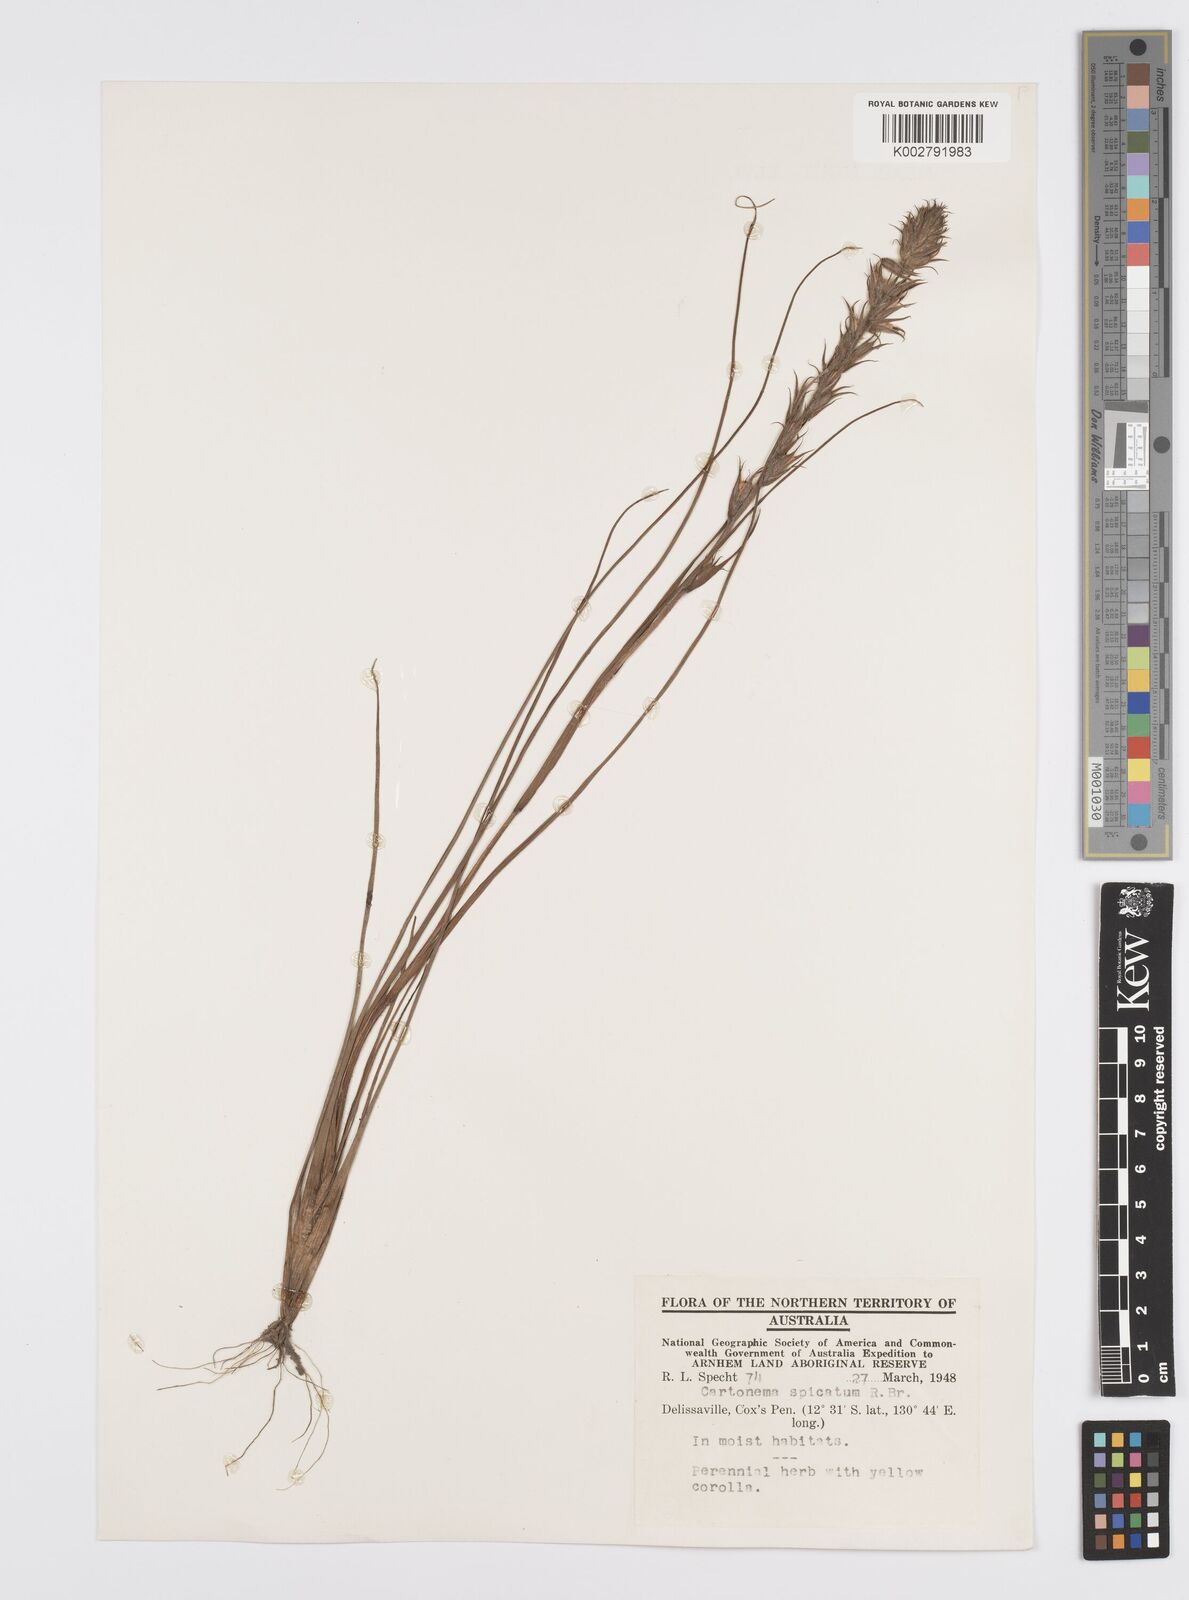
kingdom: Plantae
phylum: Tracheophyta
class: Liliopsida
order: Commelinales
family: Commelinaceae
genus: Cartonema
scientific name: Cartonema spicatum
